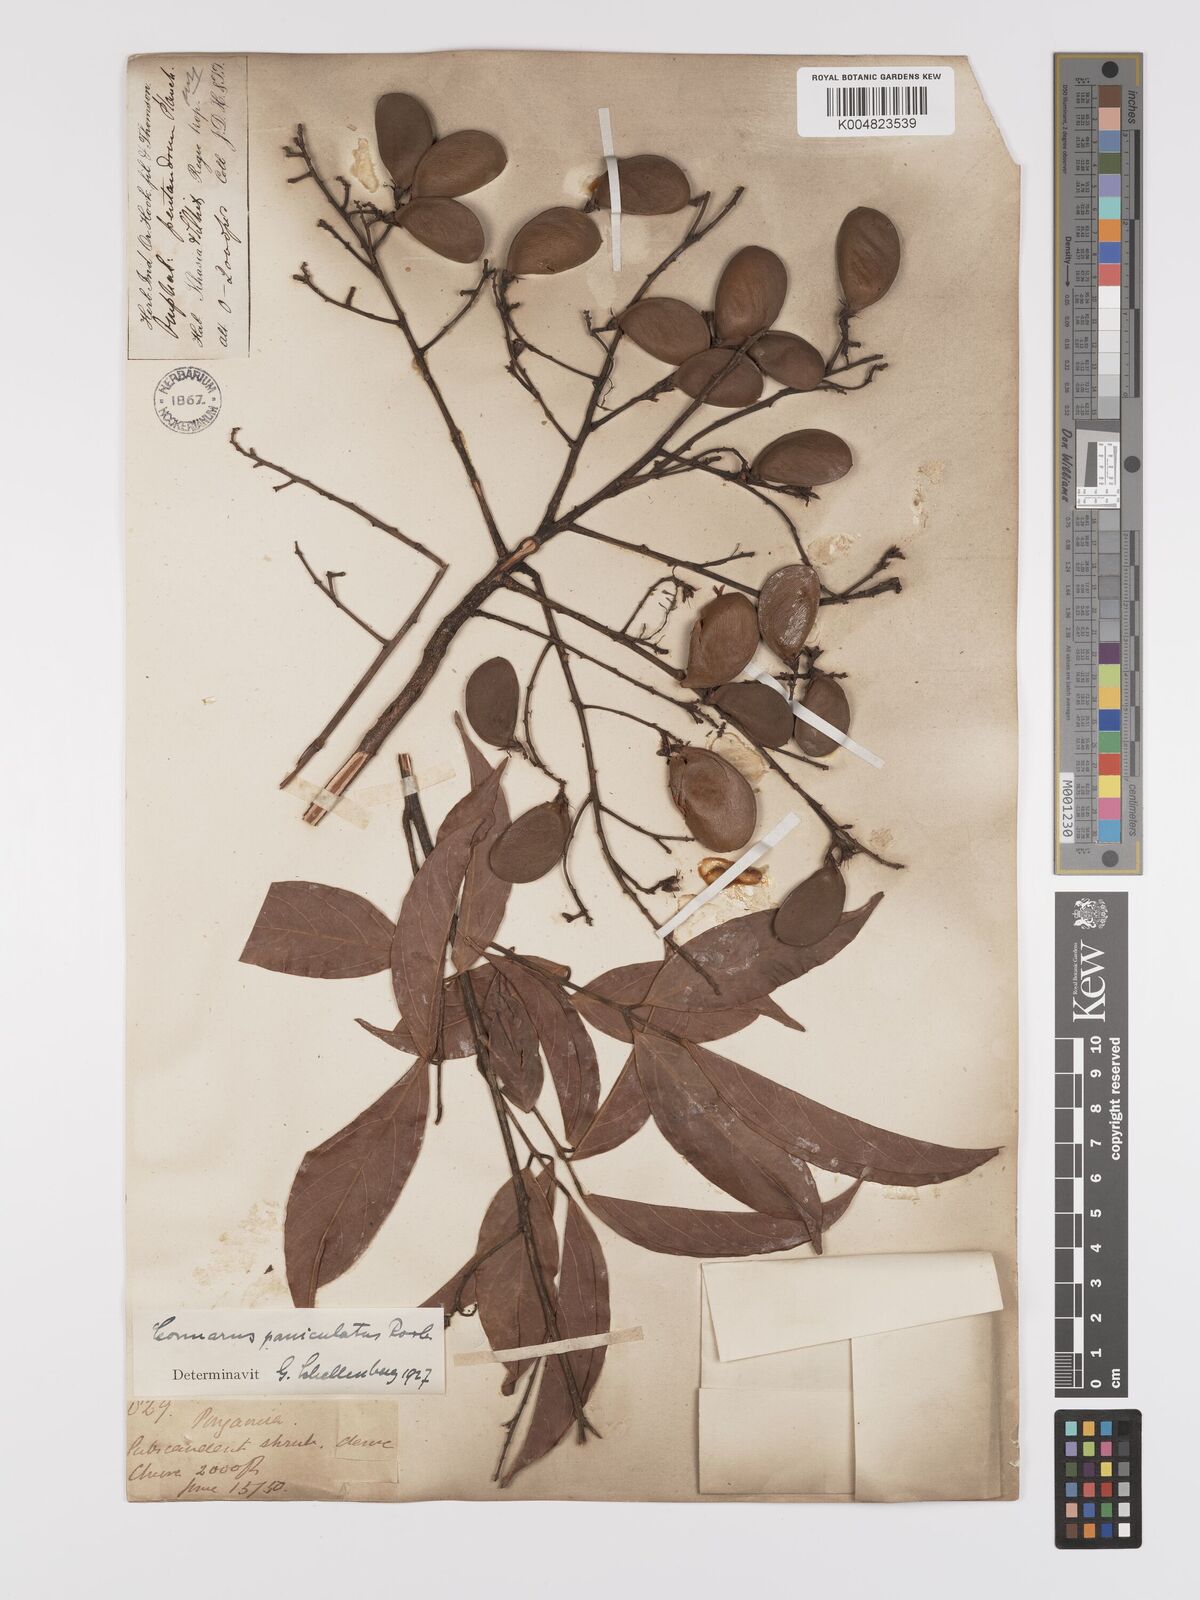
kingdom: Plantae
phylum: Tracheophyta
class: Magnoliopsida
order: Oxalidales
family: Connaraceae
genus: Connarus
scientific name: Connarus paniculatus
